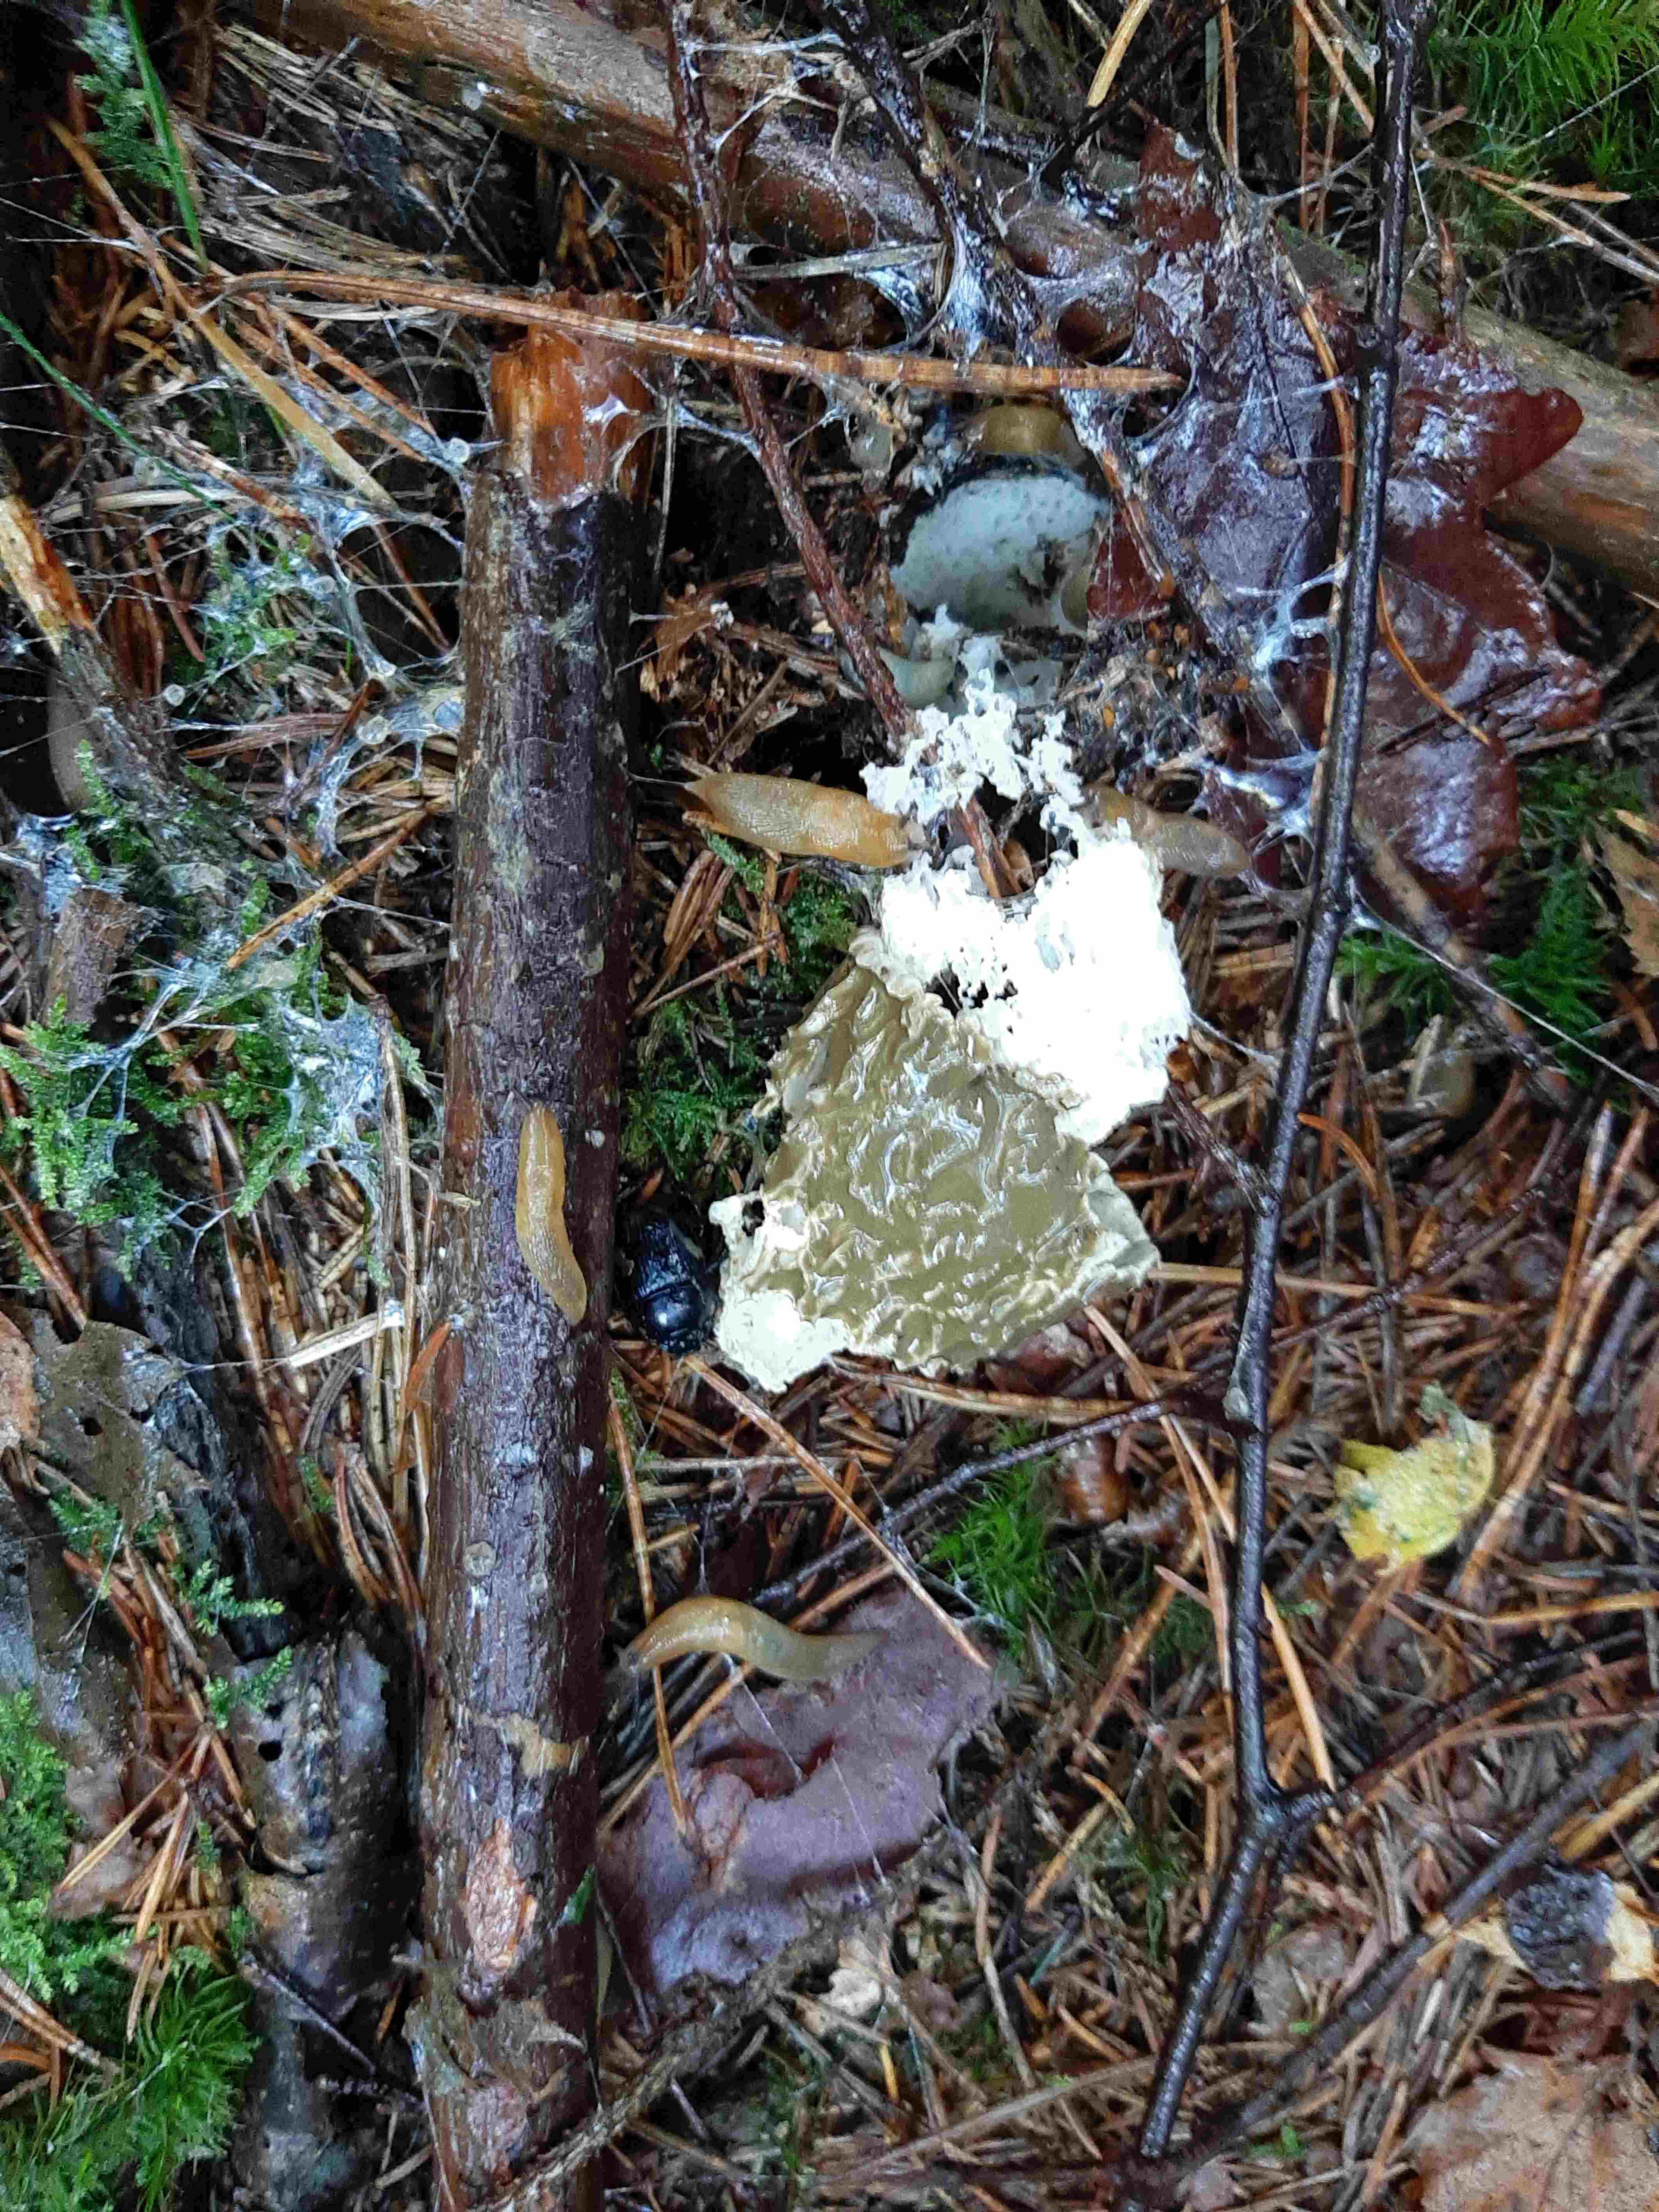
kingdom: Fungi
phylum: Basidiomycota
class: Agaricomycetes
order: Phallales
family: Phallaceae
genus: Phallus
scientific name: Phallus impudicus
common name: almindelig stinksvamp
